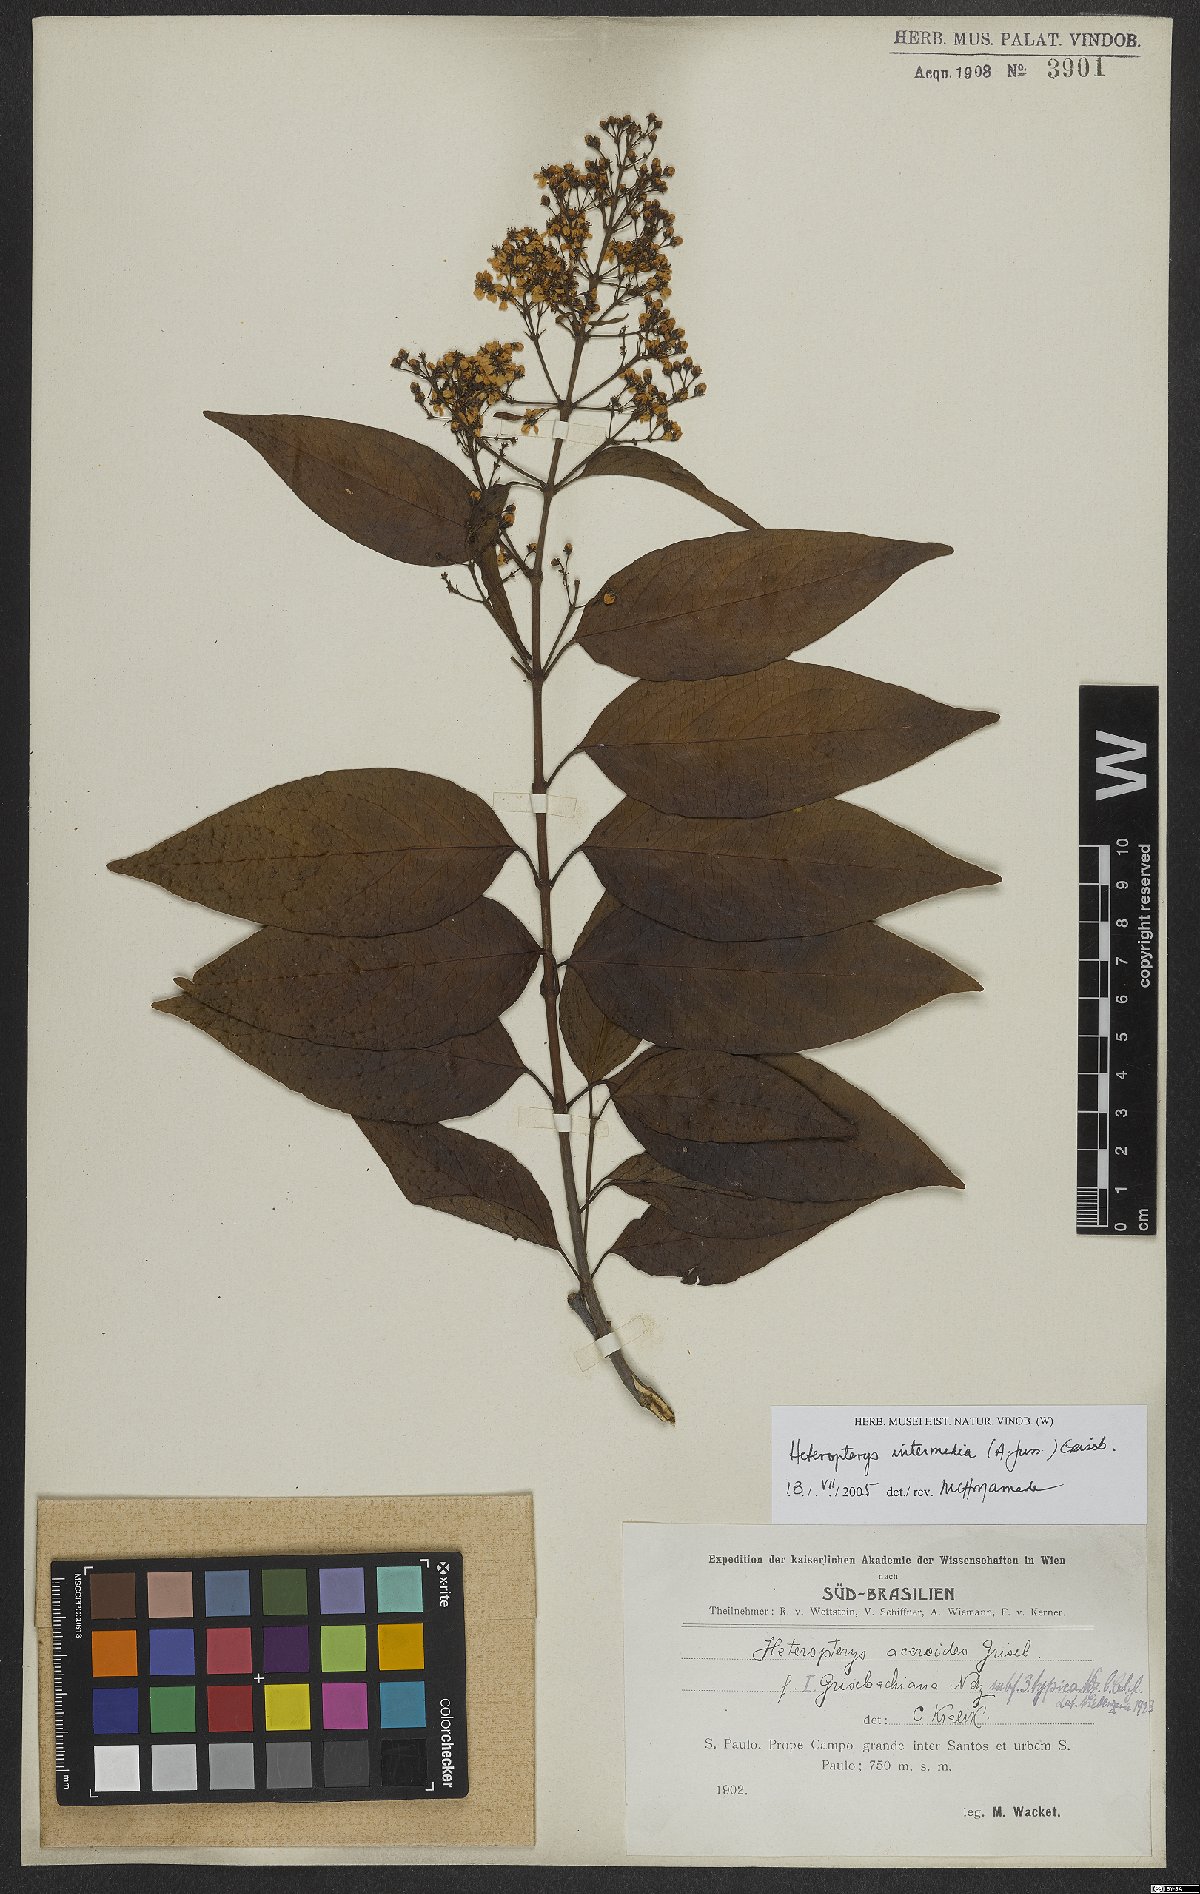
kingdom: Plantae
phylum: Tracheophyta
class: Magnoliopsida
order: Malpighiales
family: Malpighiaceae
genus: Heteropterys
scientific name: Heteropterys intermedia
